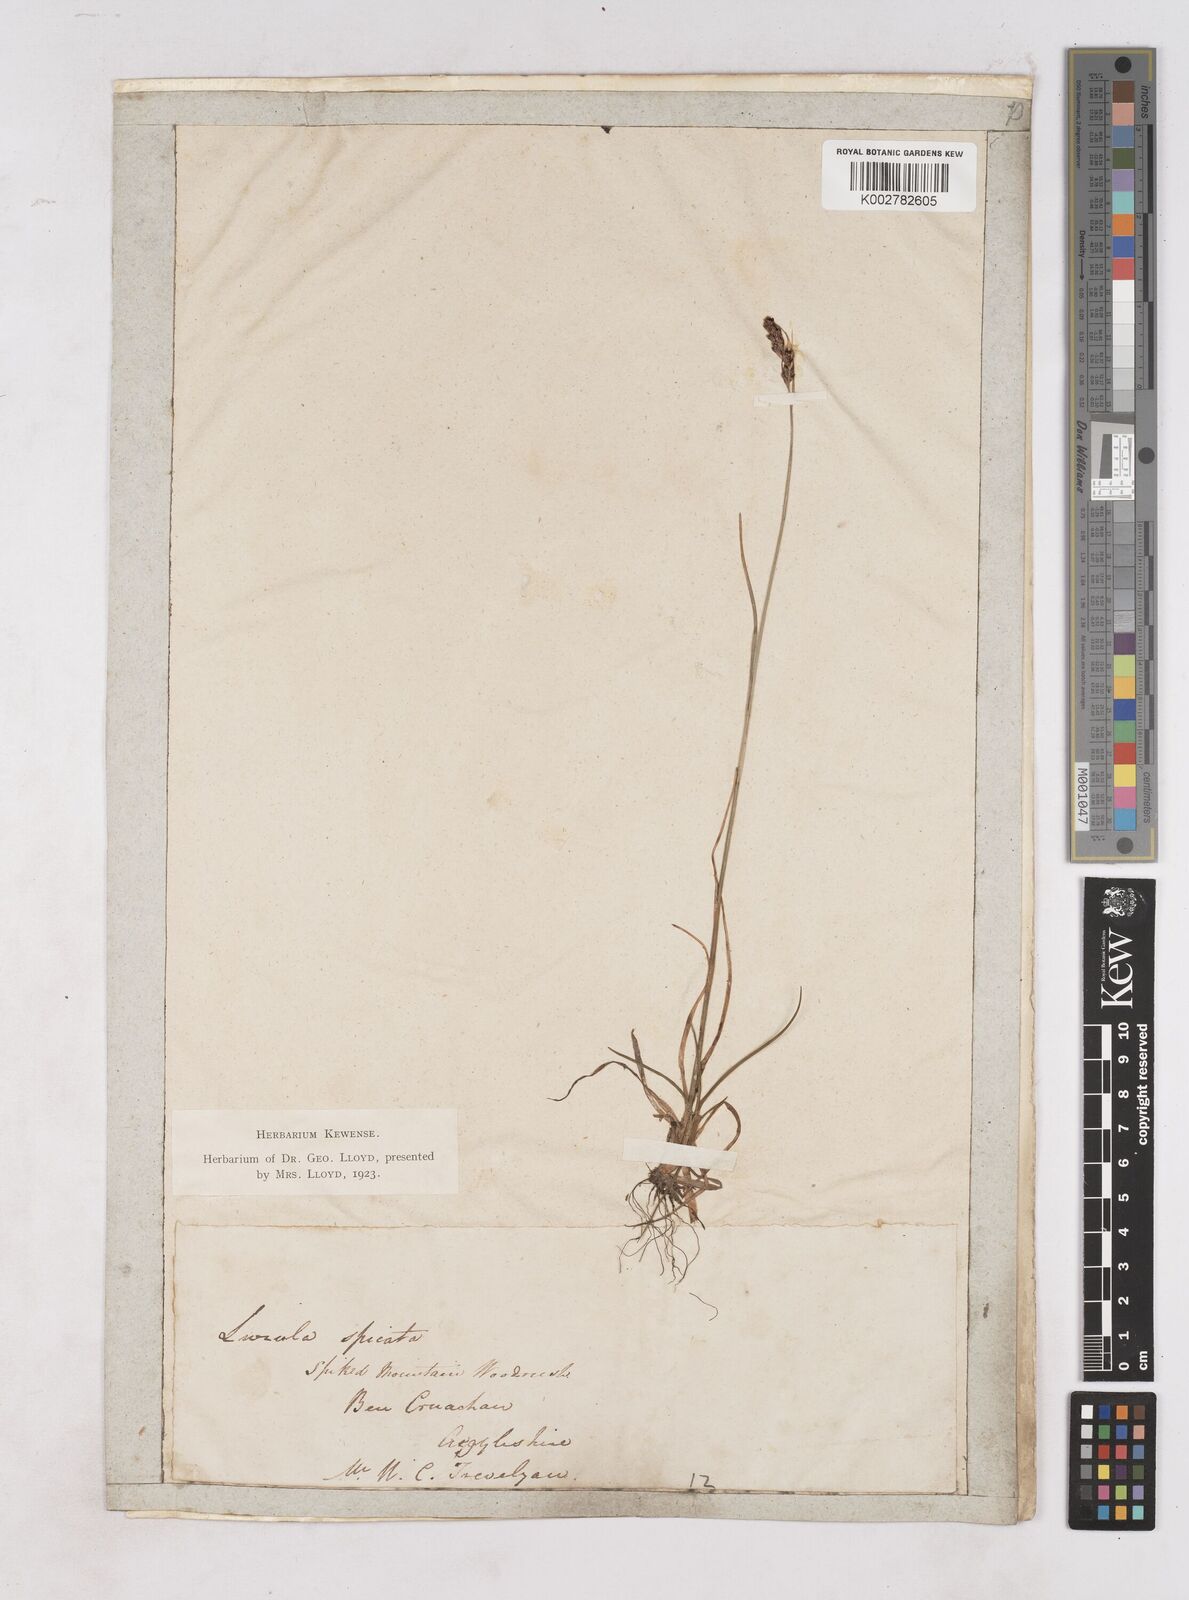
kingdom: Plantae
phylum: Tracheophyta
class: Liliopsida
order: Poales
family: Juncaceae
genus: Luzula
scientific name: Luzula spicata
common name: Spiked wood-rush
